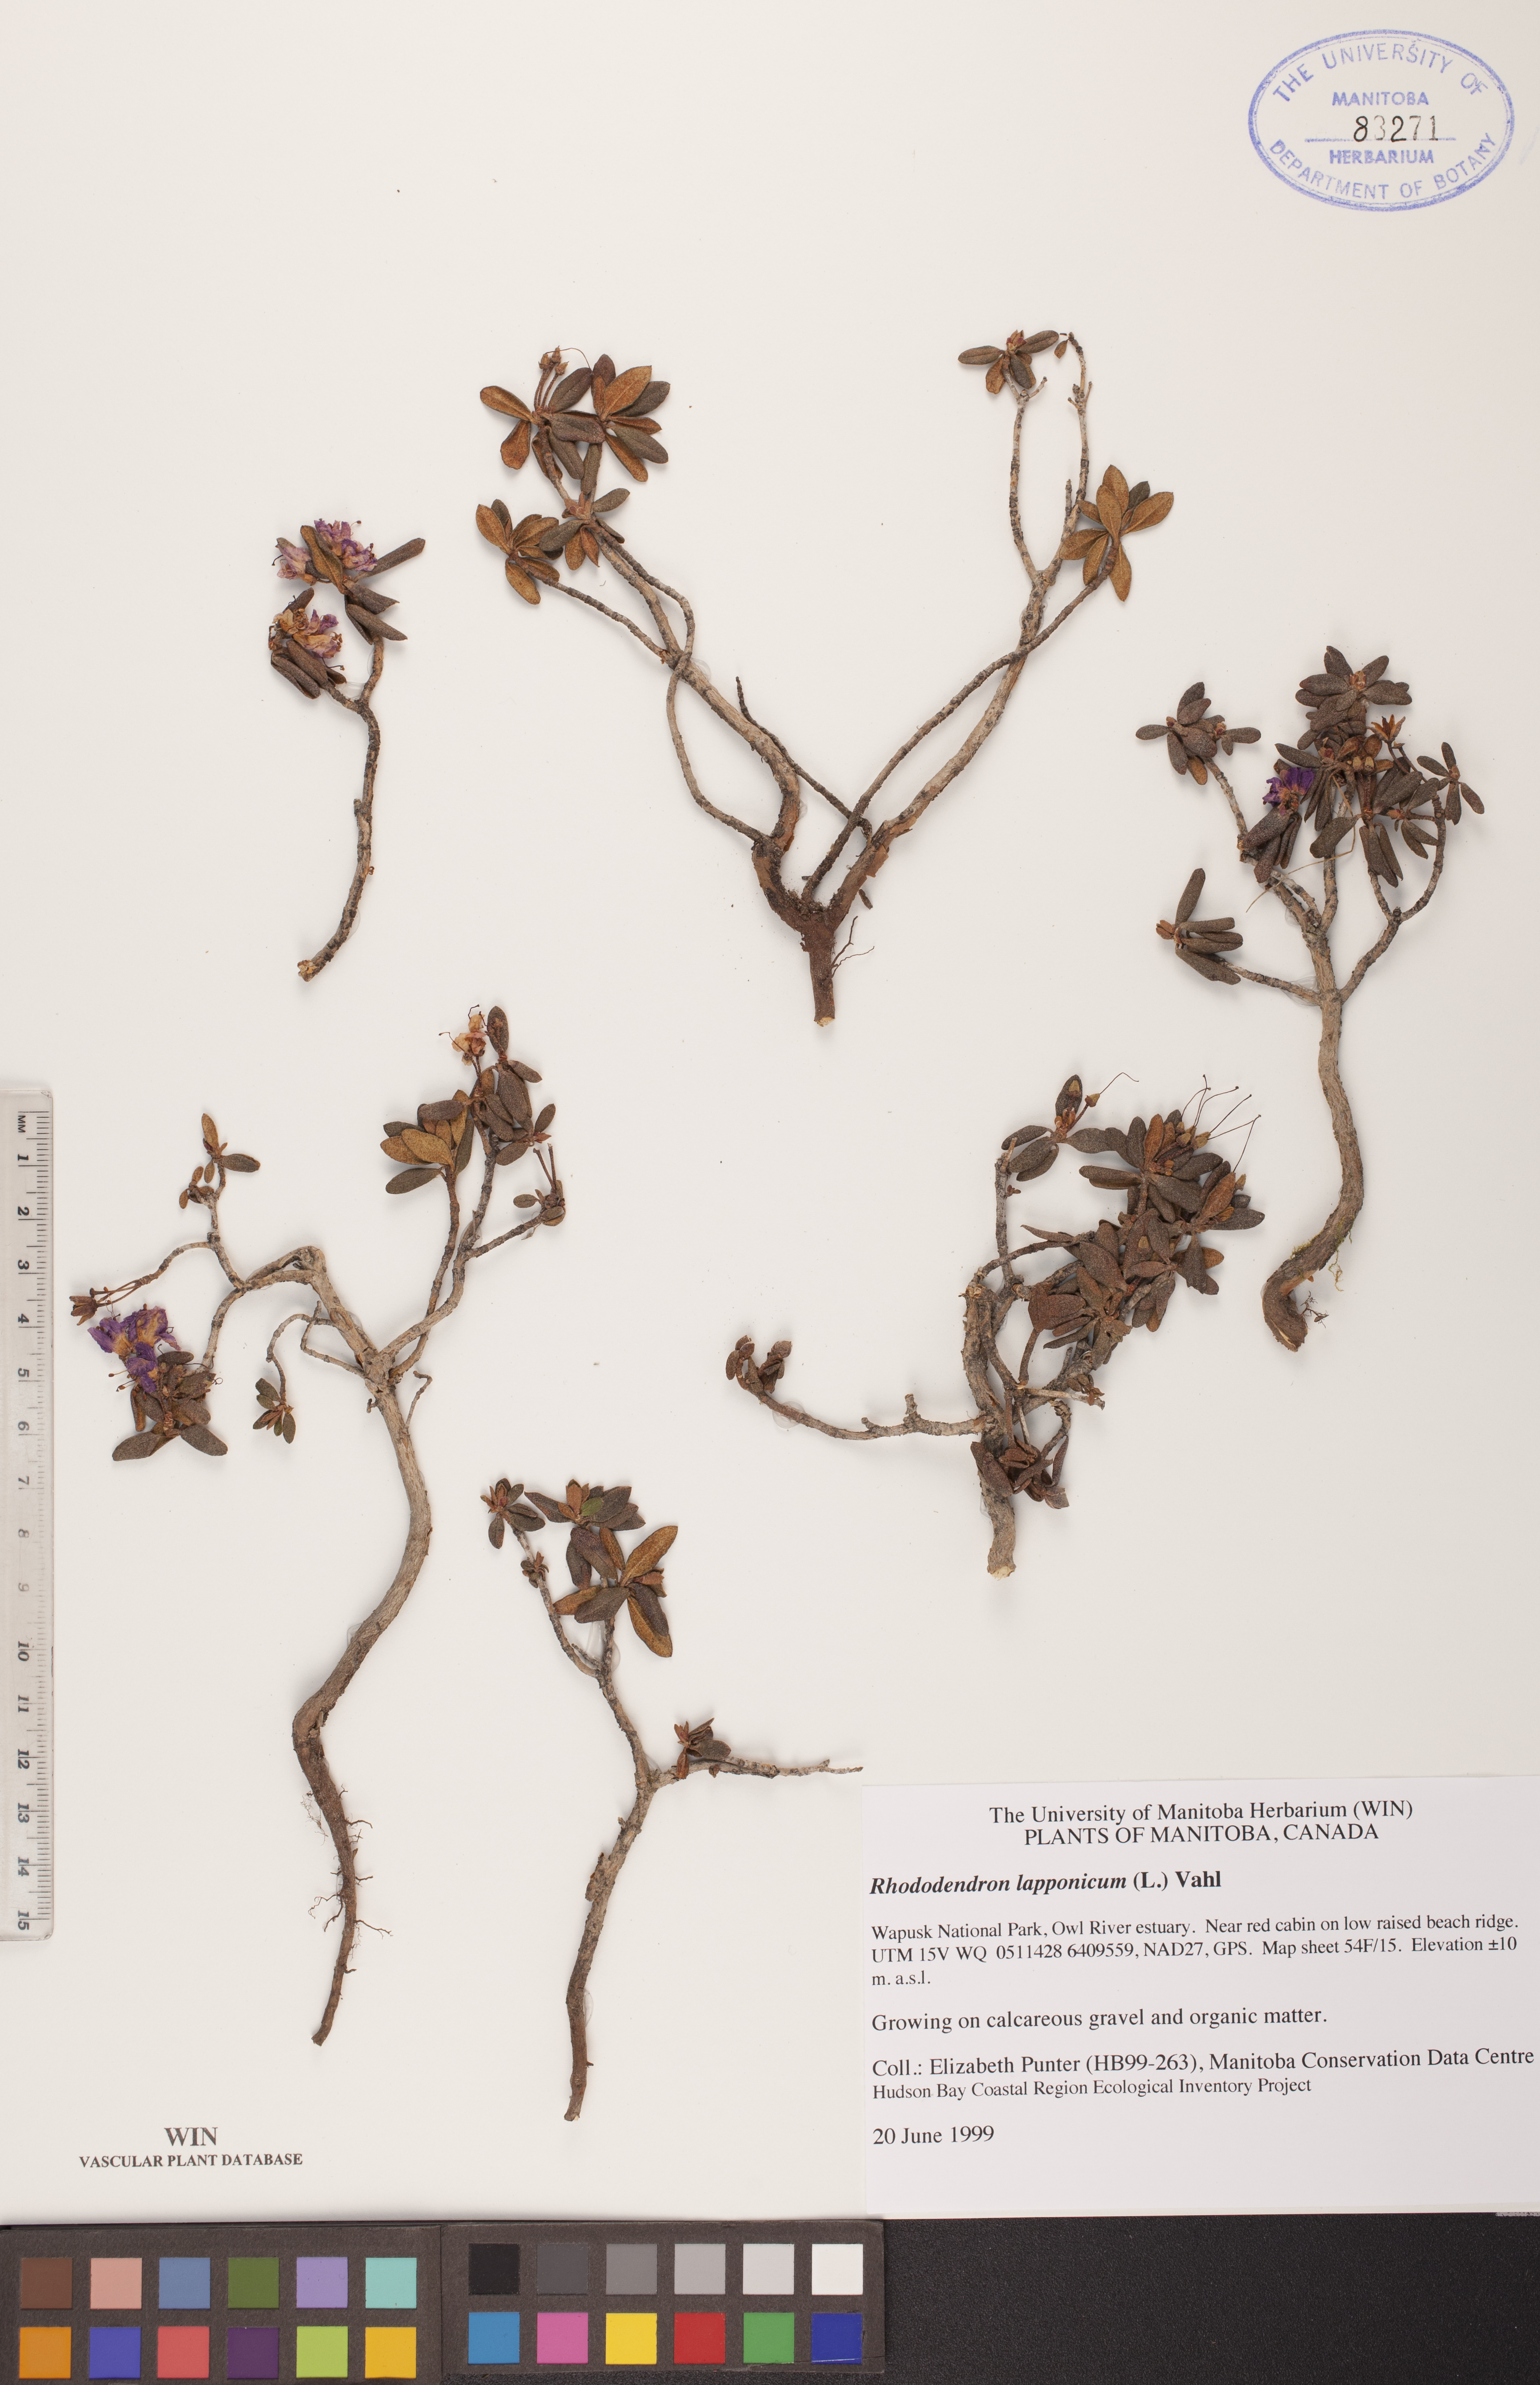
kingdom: Plantae
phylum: Tracheophyta
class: Magnoliopsida
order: Ericales
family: Ericaceae
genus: Rhododendron
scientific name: Rhododendron lapponicum
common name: Lapland rhododendron
